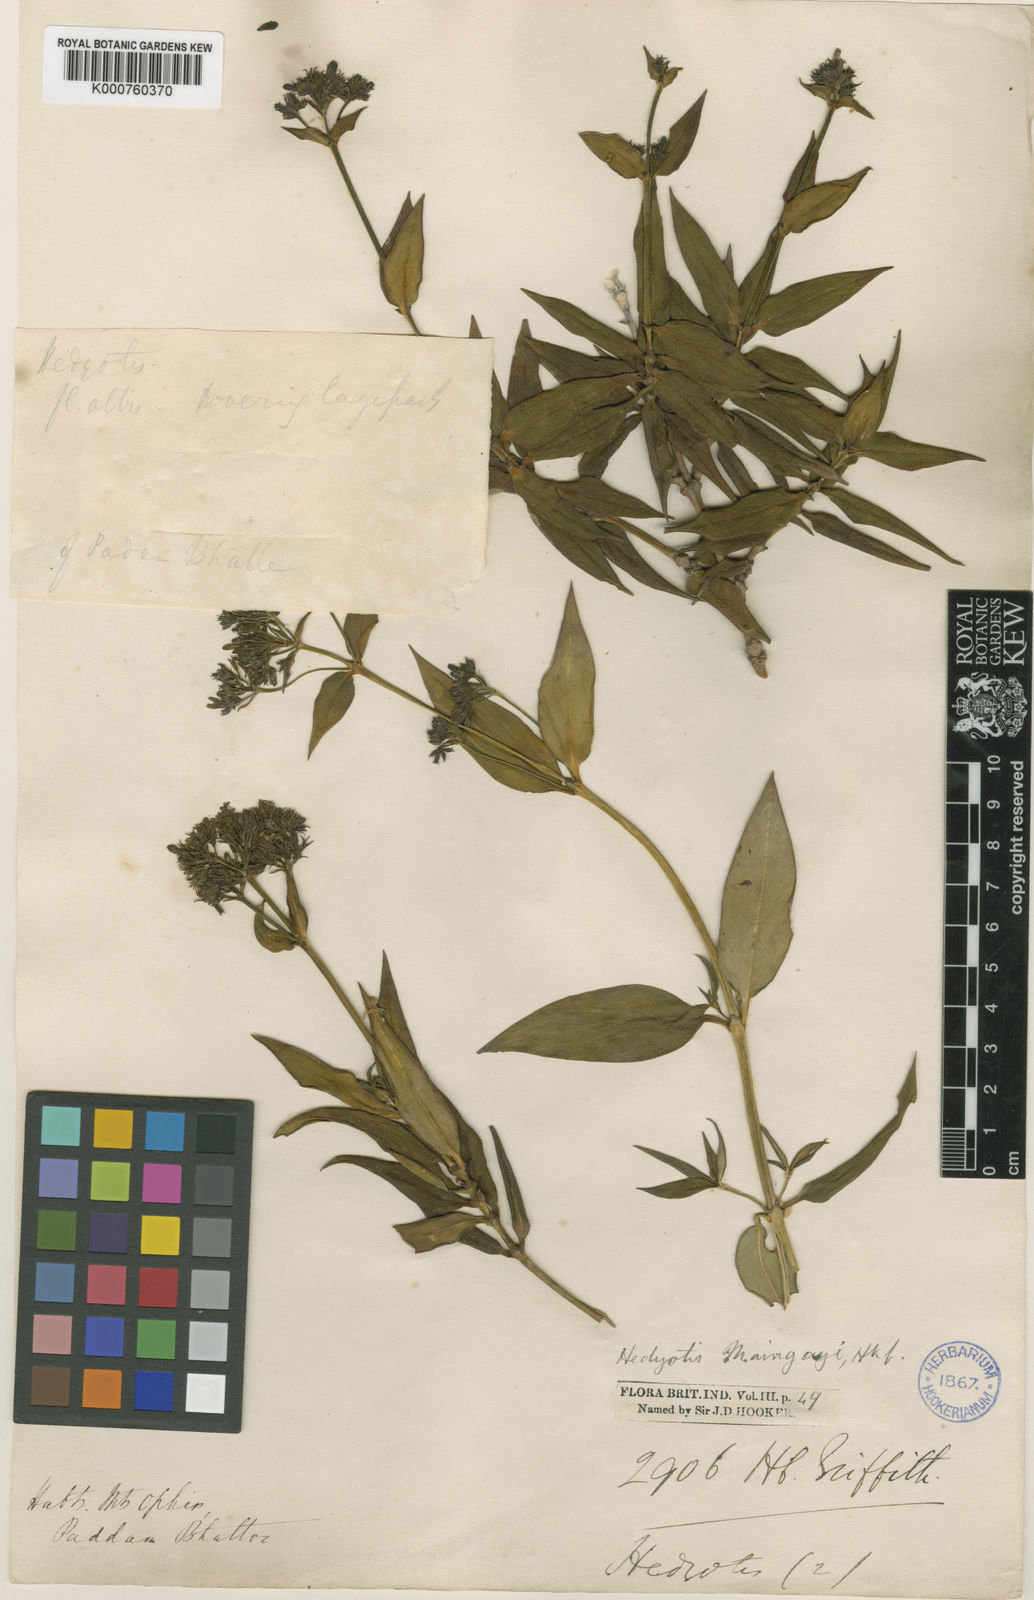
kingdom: Plantae
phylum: Tracheophyta
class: Magnoliopsida
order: Gentianales
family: Rubiaceae
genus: Hedyotis
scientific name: Hedyotis maingayi
